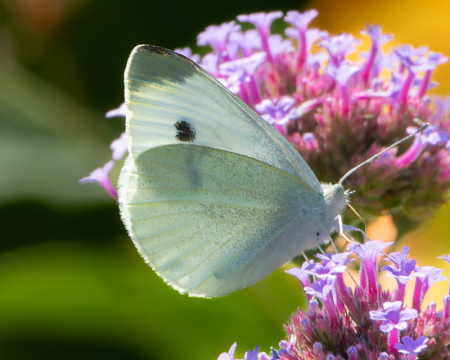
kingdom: Animalia
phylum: Arthropoda
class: Insecta
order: Lepidoptera
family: Pieridae
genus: Pieris
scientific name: Pieris rapae
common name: Cabbage White
